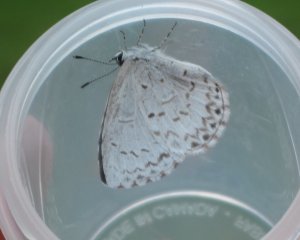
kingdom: Animalia
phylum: Arthropoda
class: Insecta
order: Lepidoptera
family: Lycaenidae
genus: Celastrina
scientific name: Celastrina
